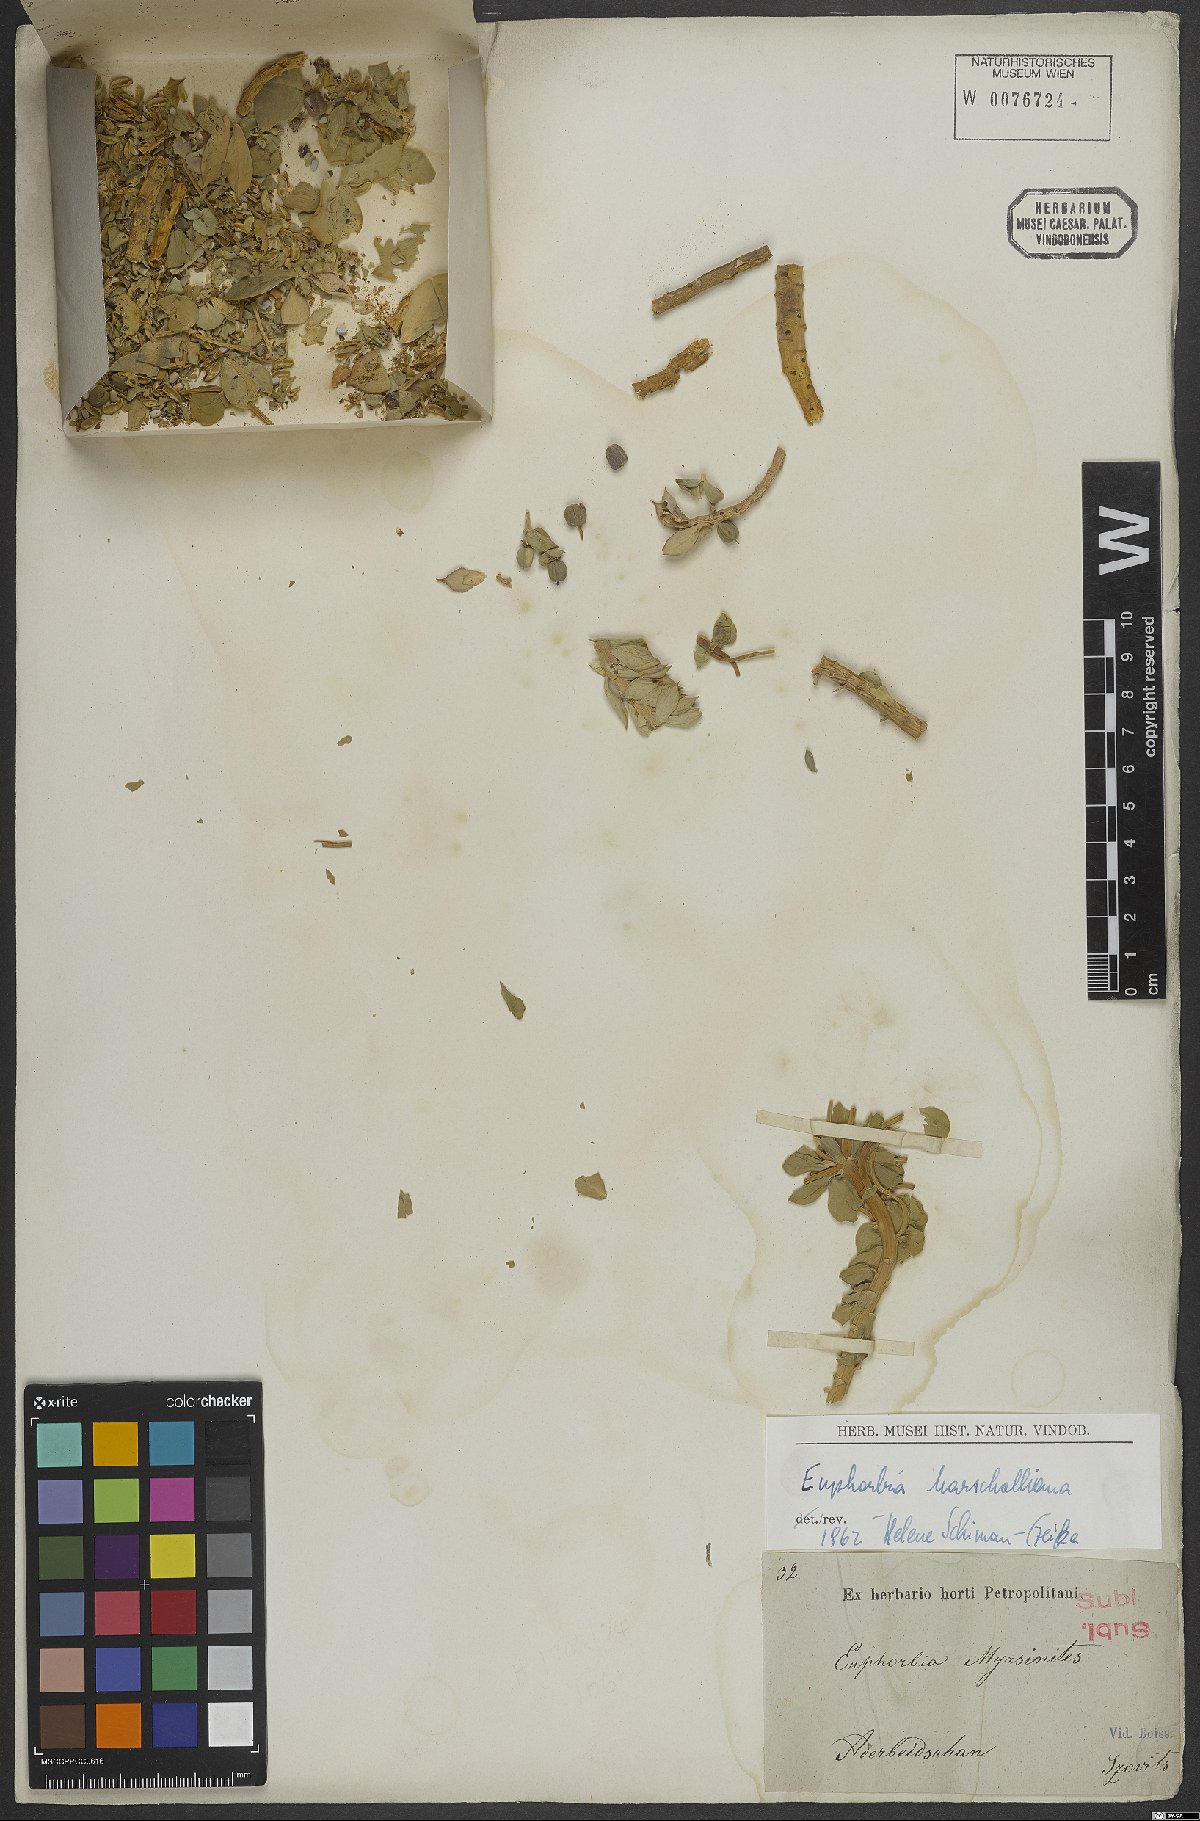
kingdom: Plantae
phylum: Tracheophyta
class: Magnoliopsida
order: Malpighiales
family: Euphorbiaceae
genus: Euphorbia
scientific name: Euphorbia marschalliana
